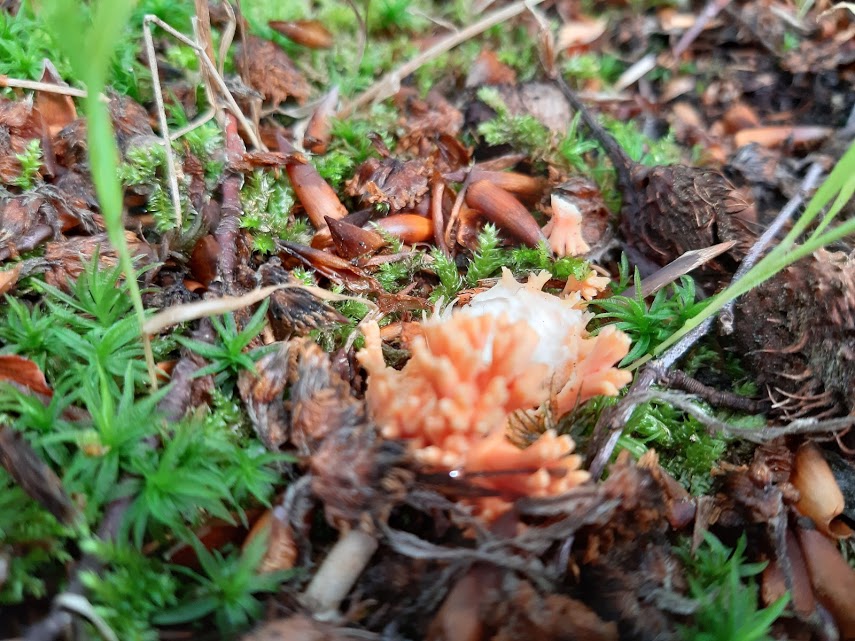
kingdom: Fungi
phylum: Basidiomycota
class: Agaricomycetes
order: Gomphales
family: Gomphaceae
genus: Ramaria
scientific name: Ramaria
